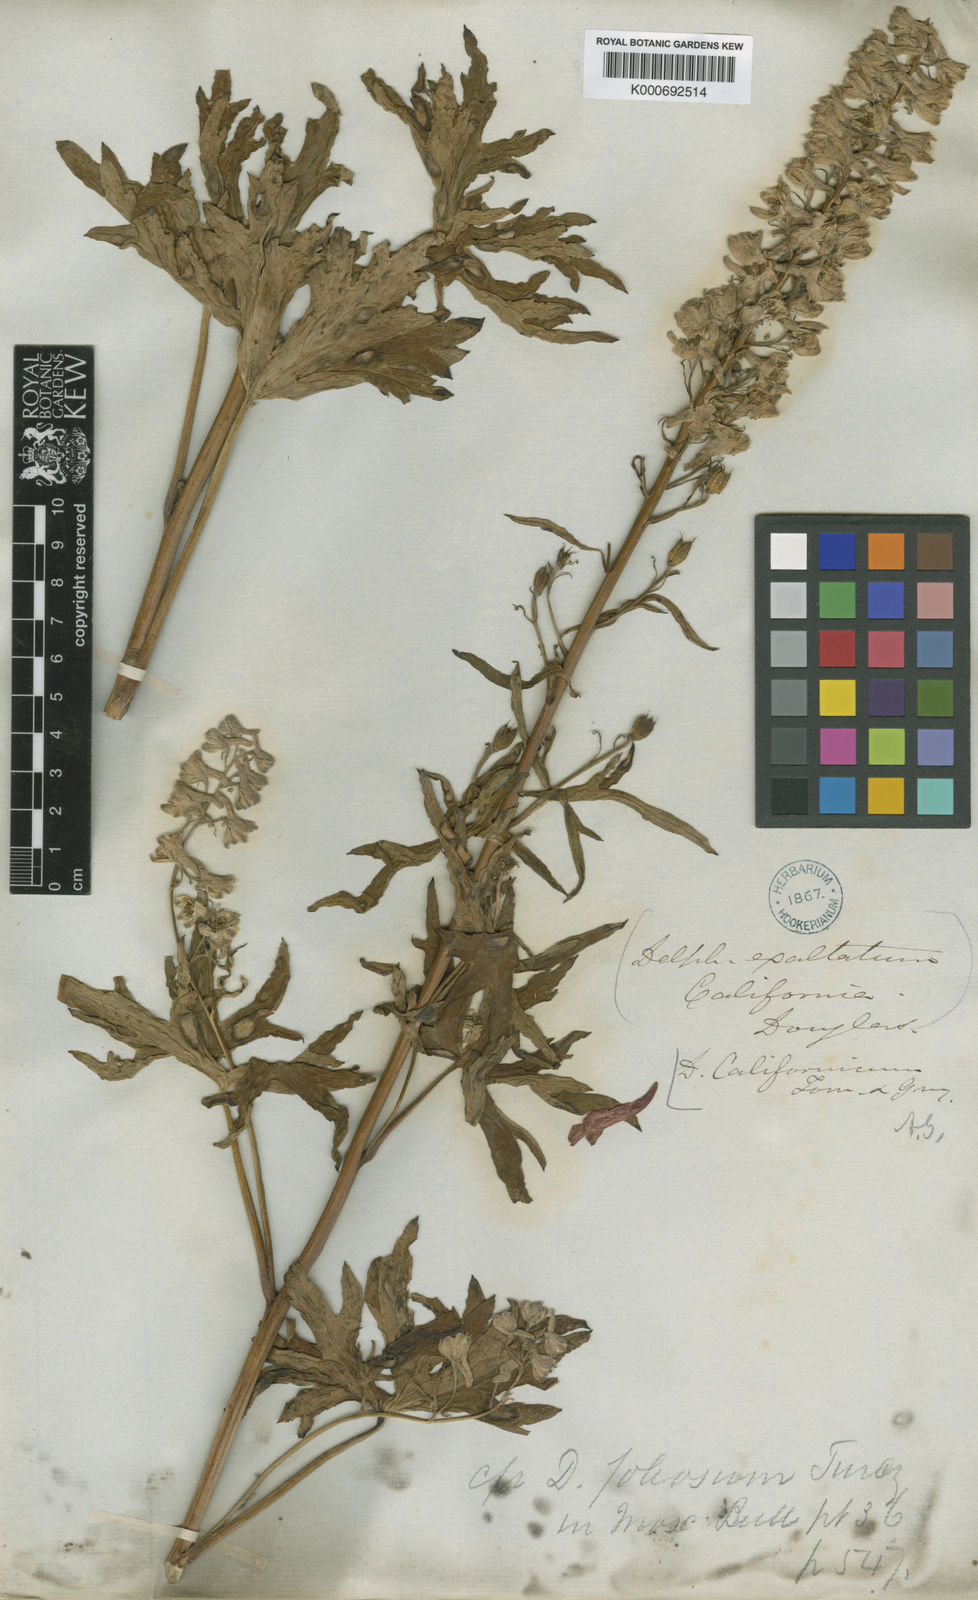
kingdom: Plantae
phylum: Tracheophyta
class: Magnoliopsida
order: Ranunculales
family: Ranunculaceae
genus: Delphinium
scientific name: Delphinium californicum
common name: California larkspur
